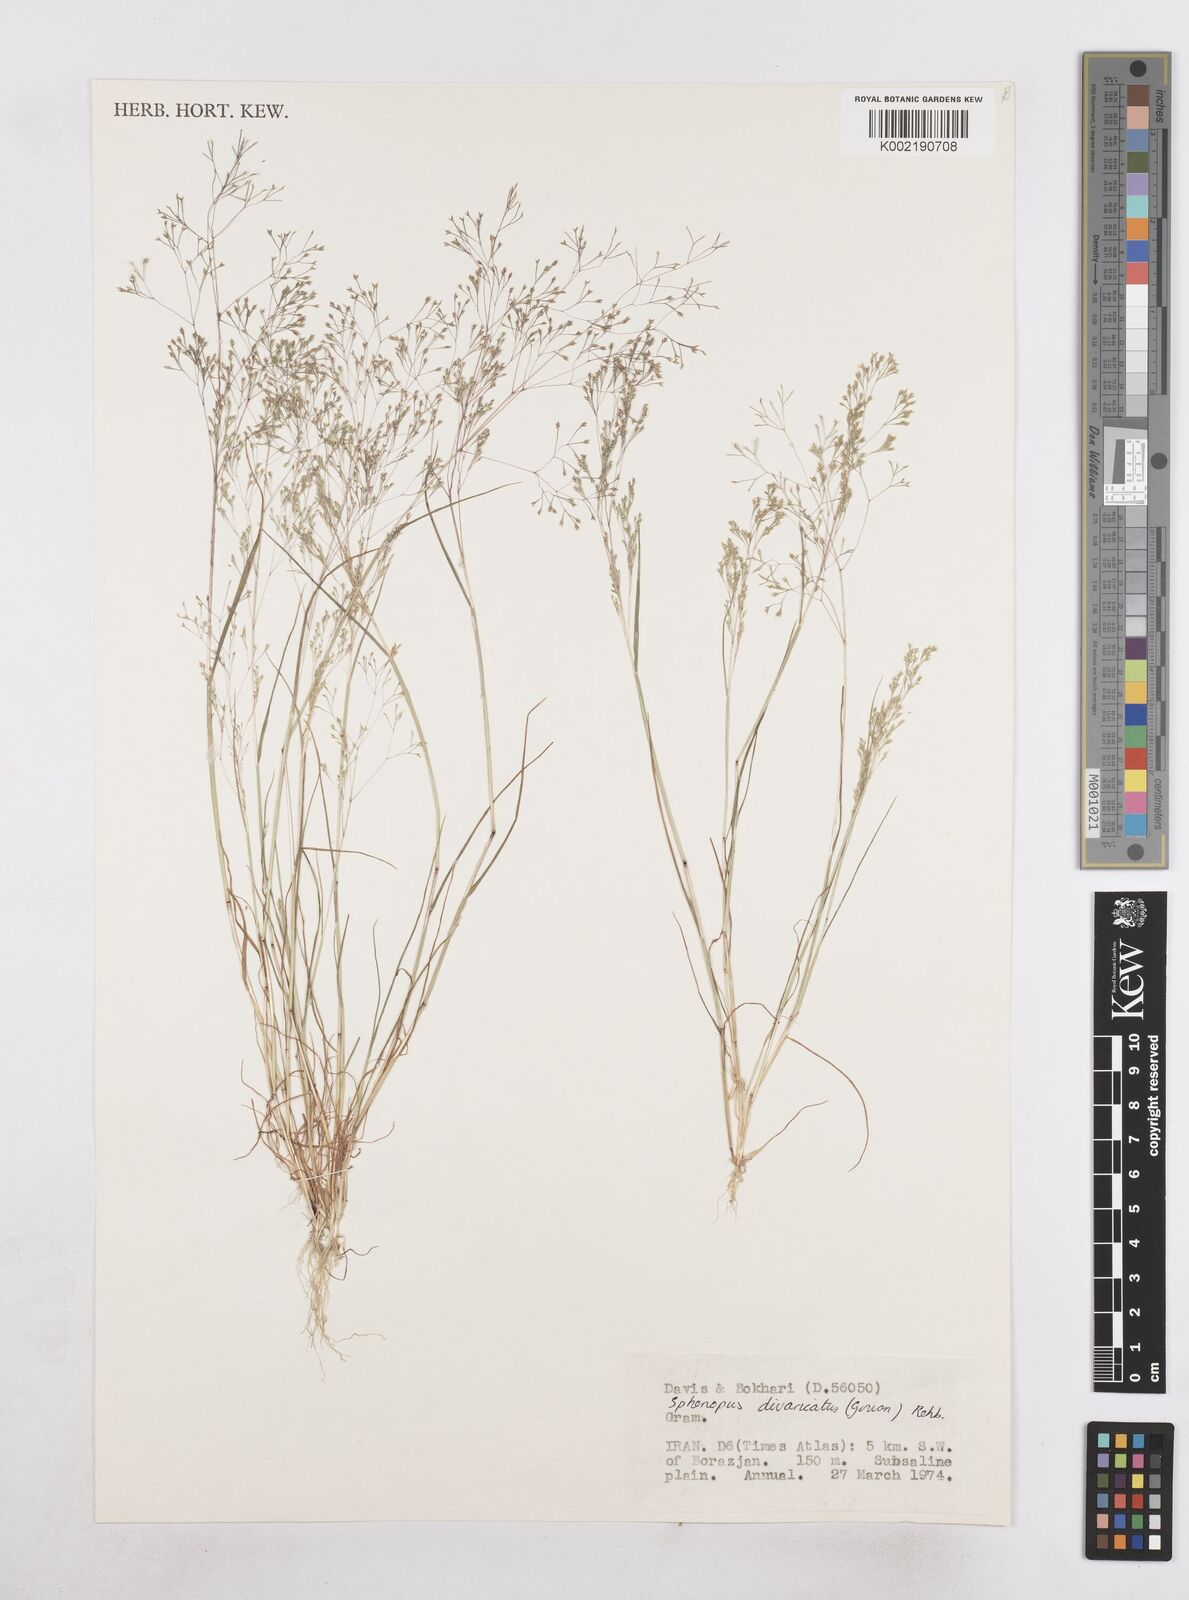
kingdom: Plantae
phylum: Tracheophyta
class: Liliopsida
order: Poales
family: Poaceae
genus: Sphenopus
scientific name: Sphenopus divaricatus
